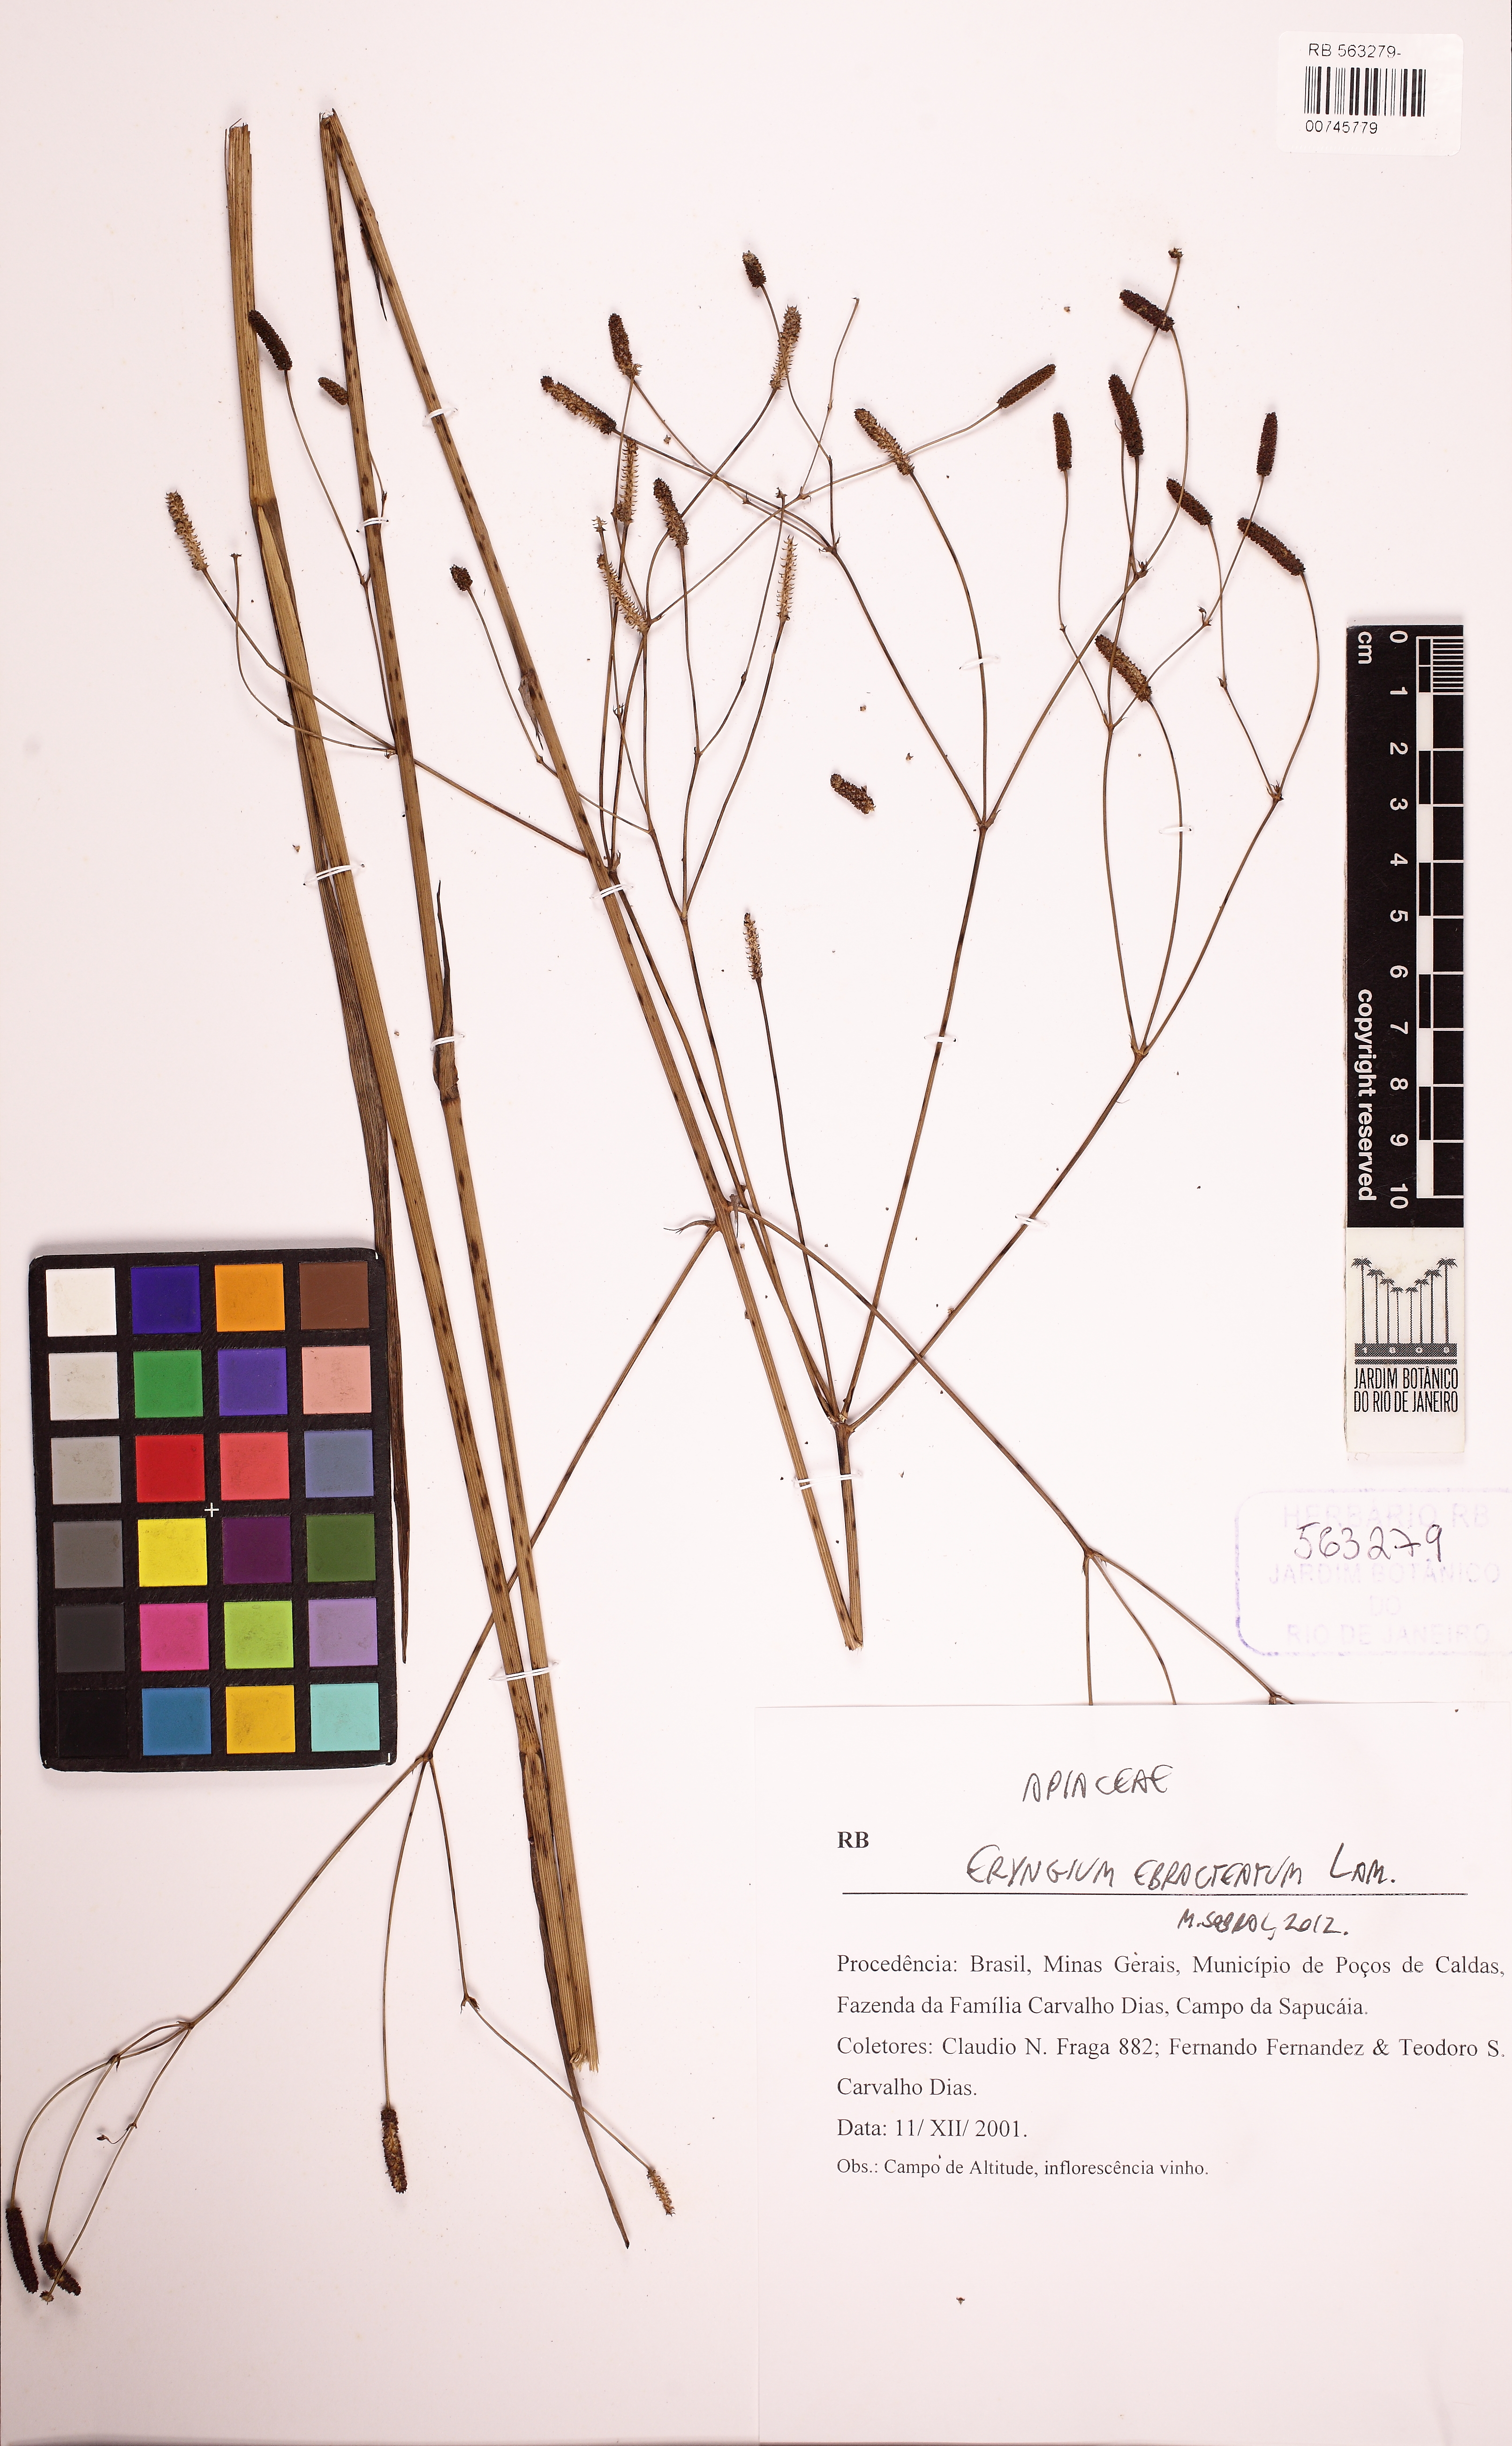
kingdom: Plantae
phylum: Tracheophyta
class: Magnoliopsida
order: Apiales
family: Apiaceae
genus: Eryngium
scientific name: Eryngium ebracteatum
